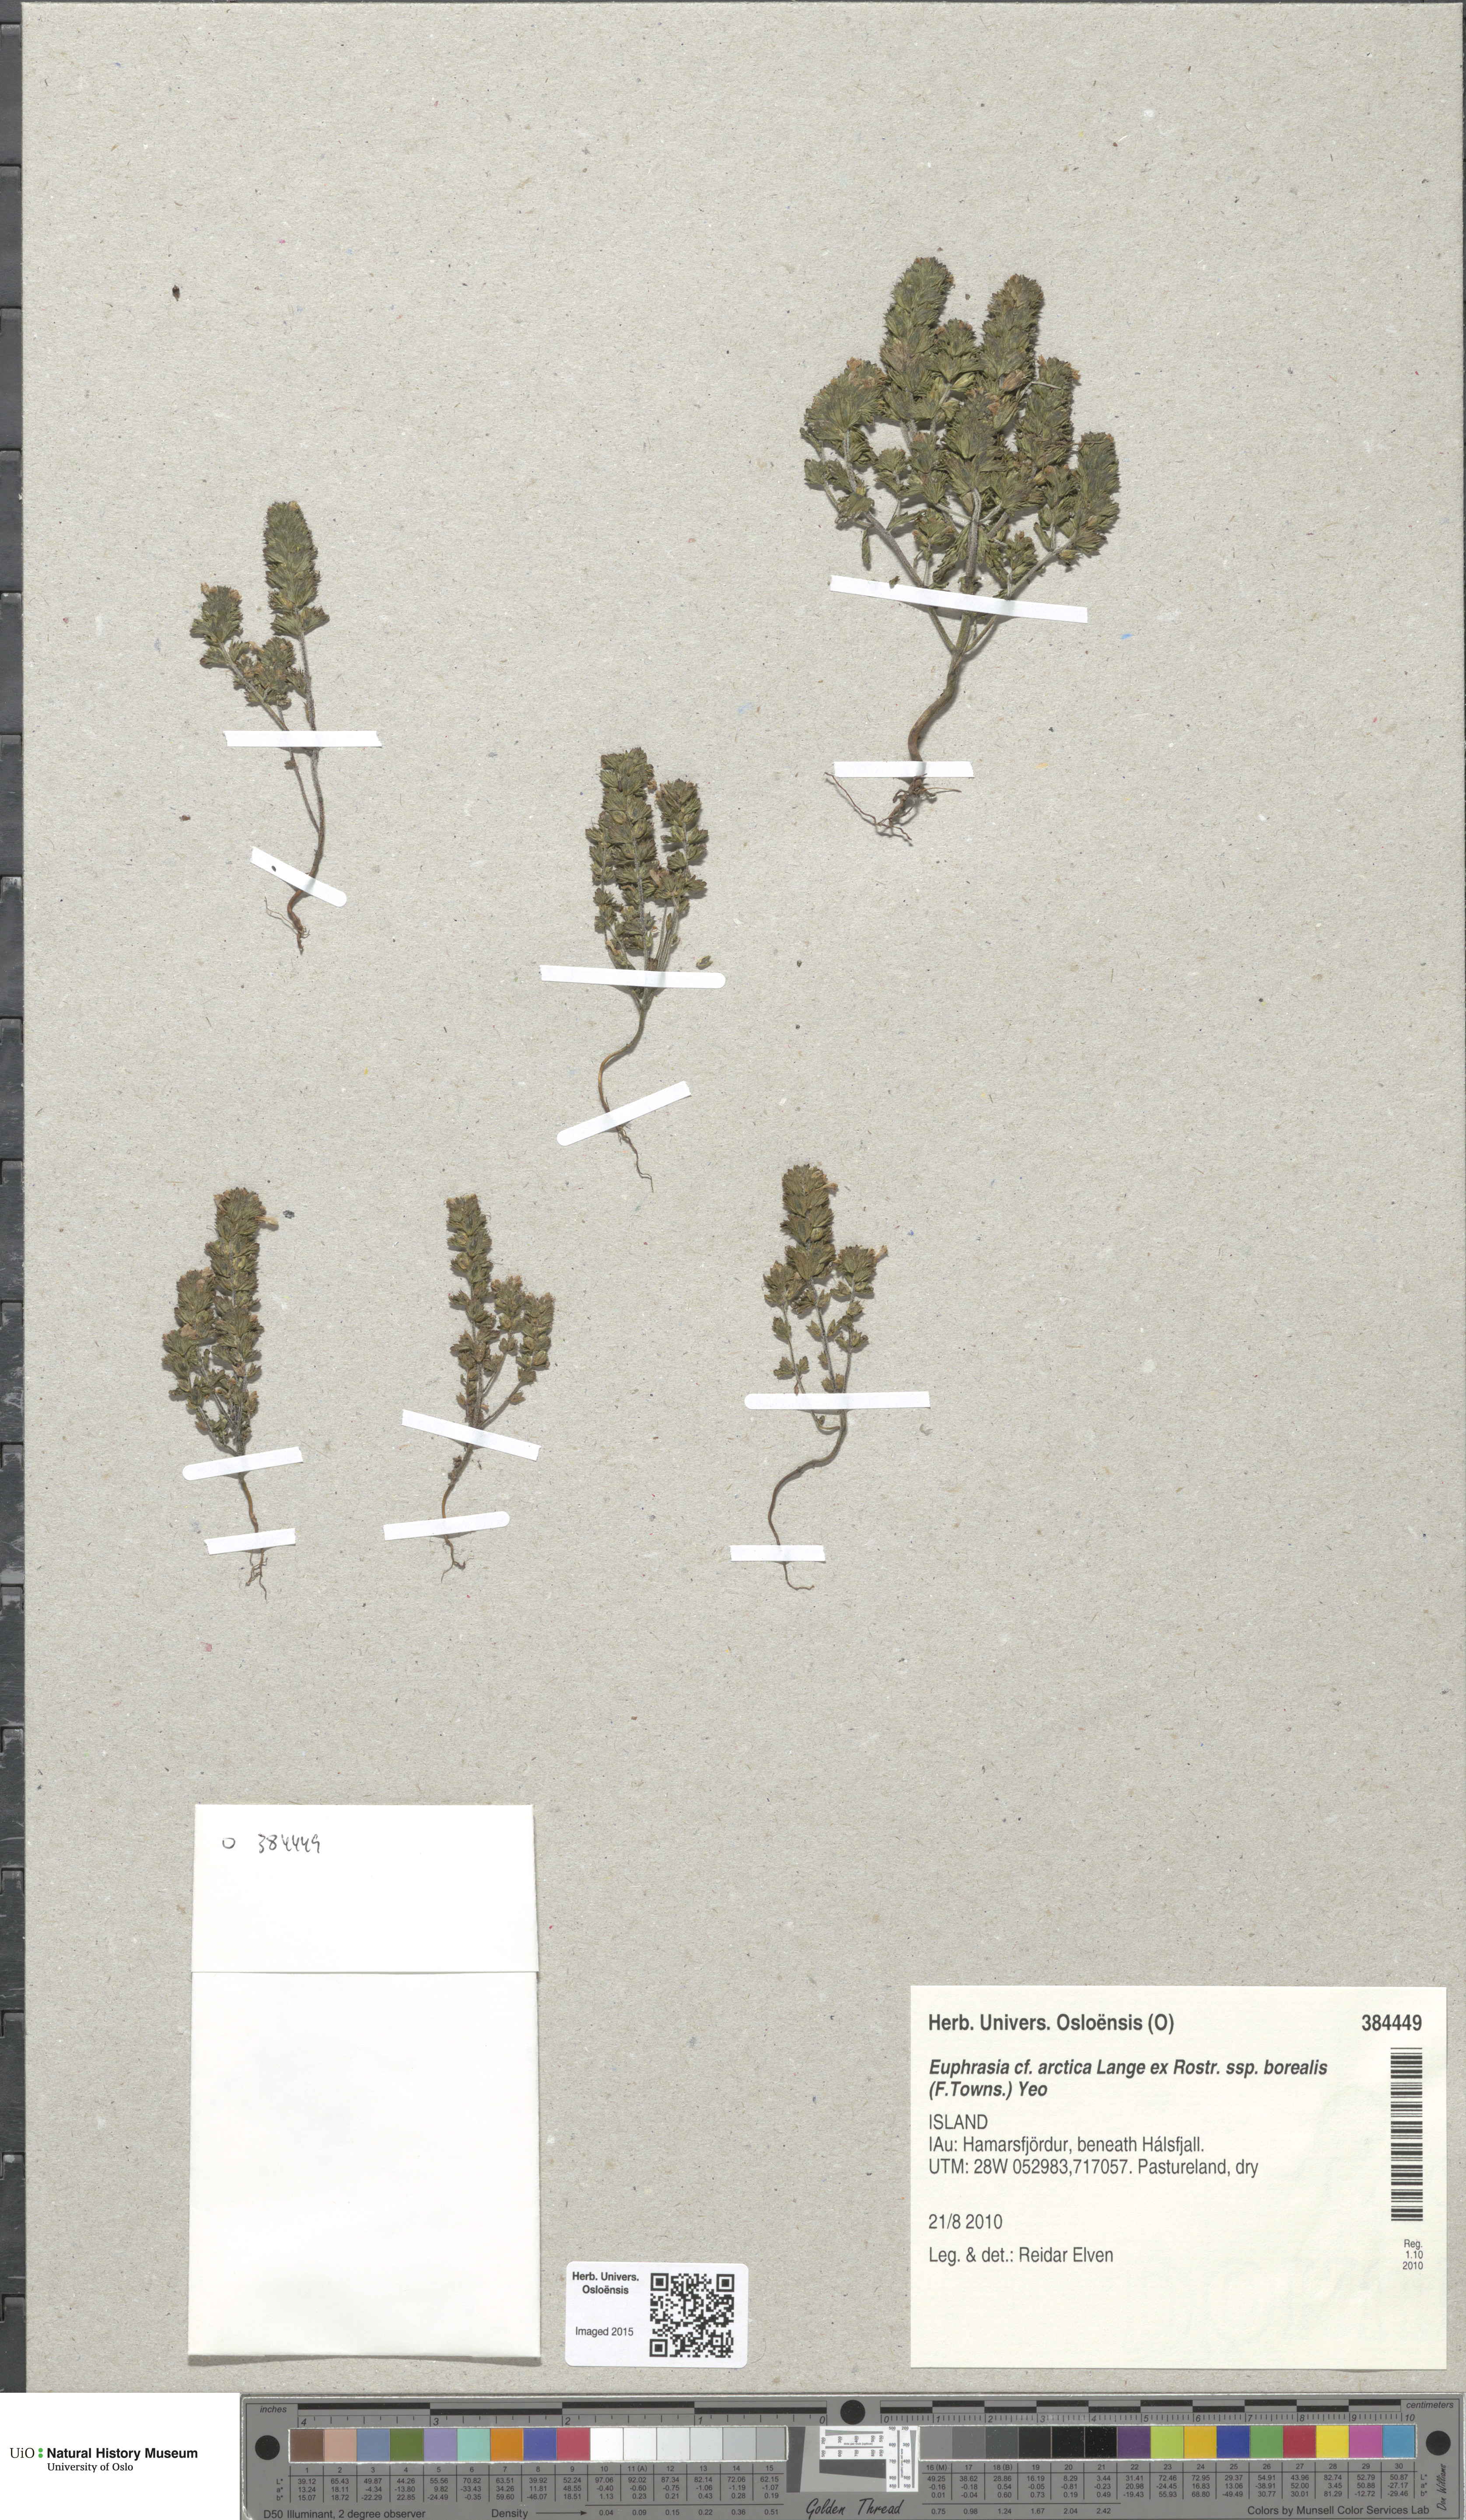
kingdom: Plantae
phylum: Tracheophyta
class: Magnoliopsida
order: Lamiales
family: Orobanchaceae
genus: Euphrasia
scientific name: Euphrasia arctica
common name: An eyebright
